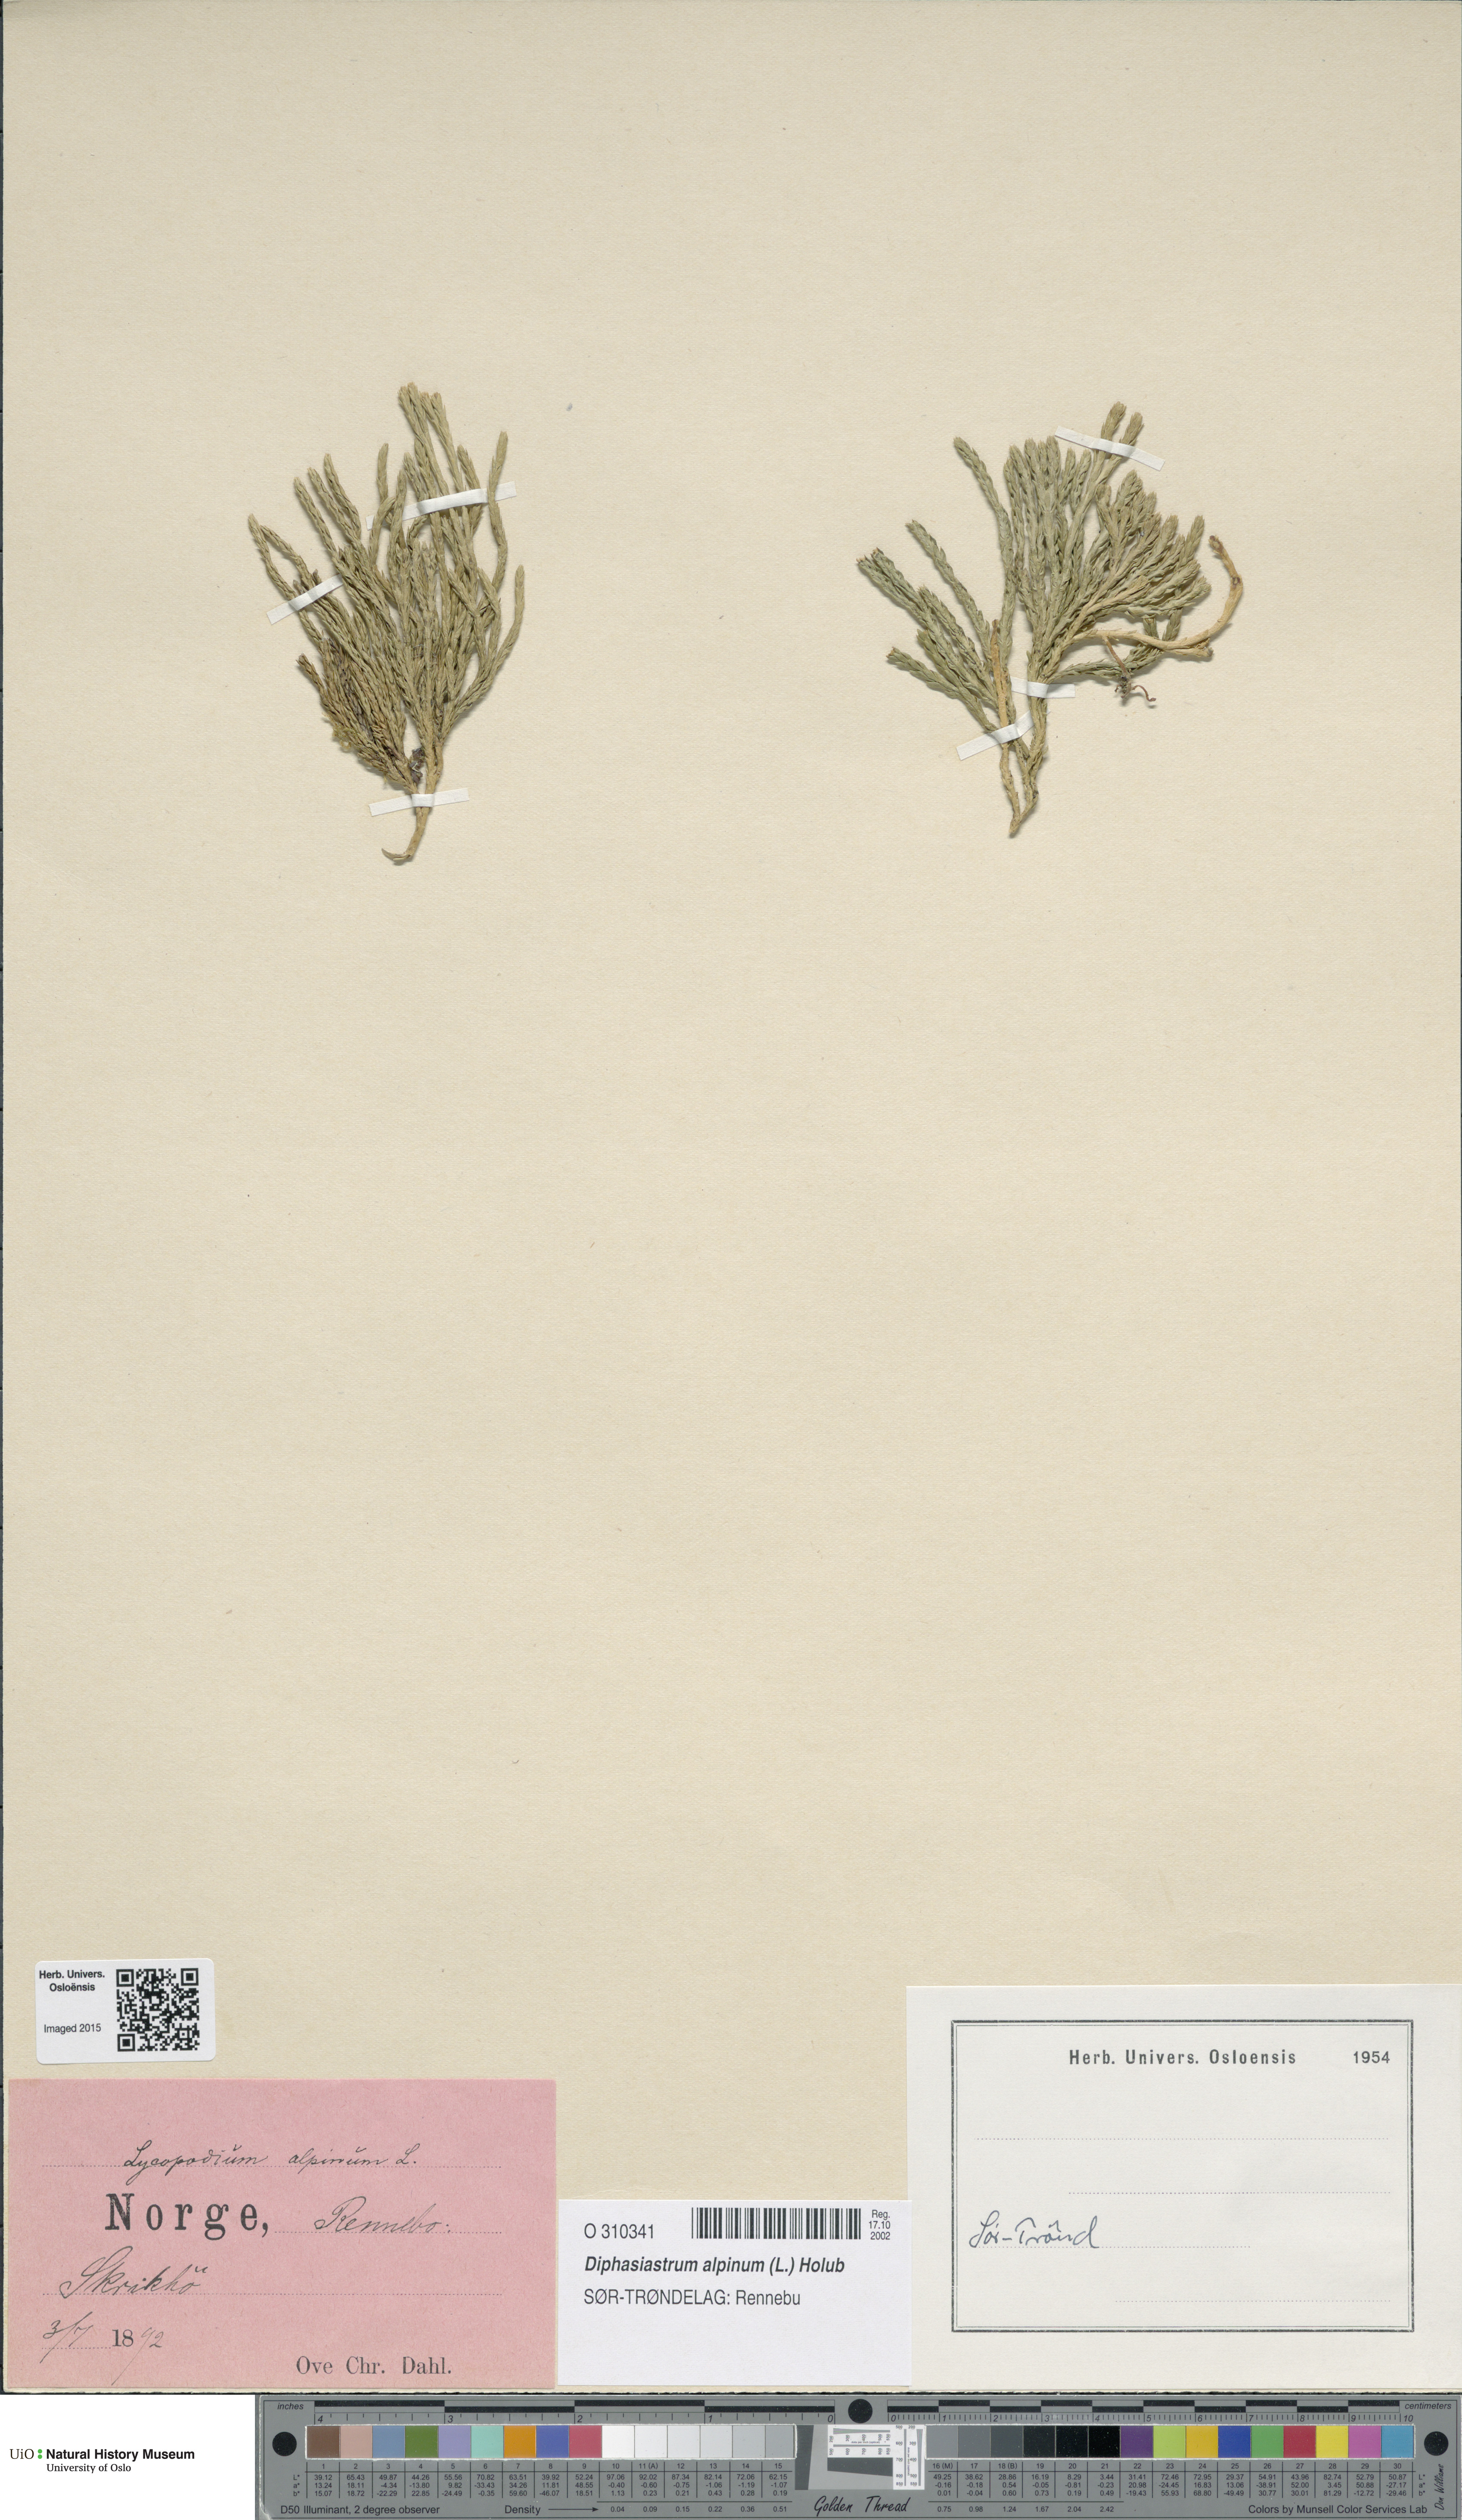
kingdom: Plantae
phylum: Tracheophyta
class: Lycopodiopsida
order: Lycopodiales
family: Lycopodiaceae
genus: Diphasiastrum
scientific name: Diphasiastrum alpinum
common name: Alpine clubmoss
